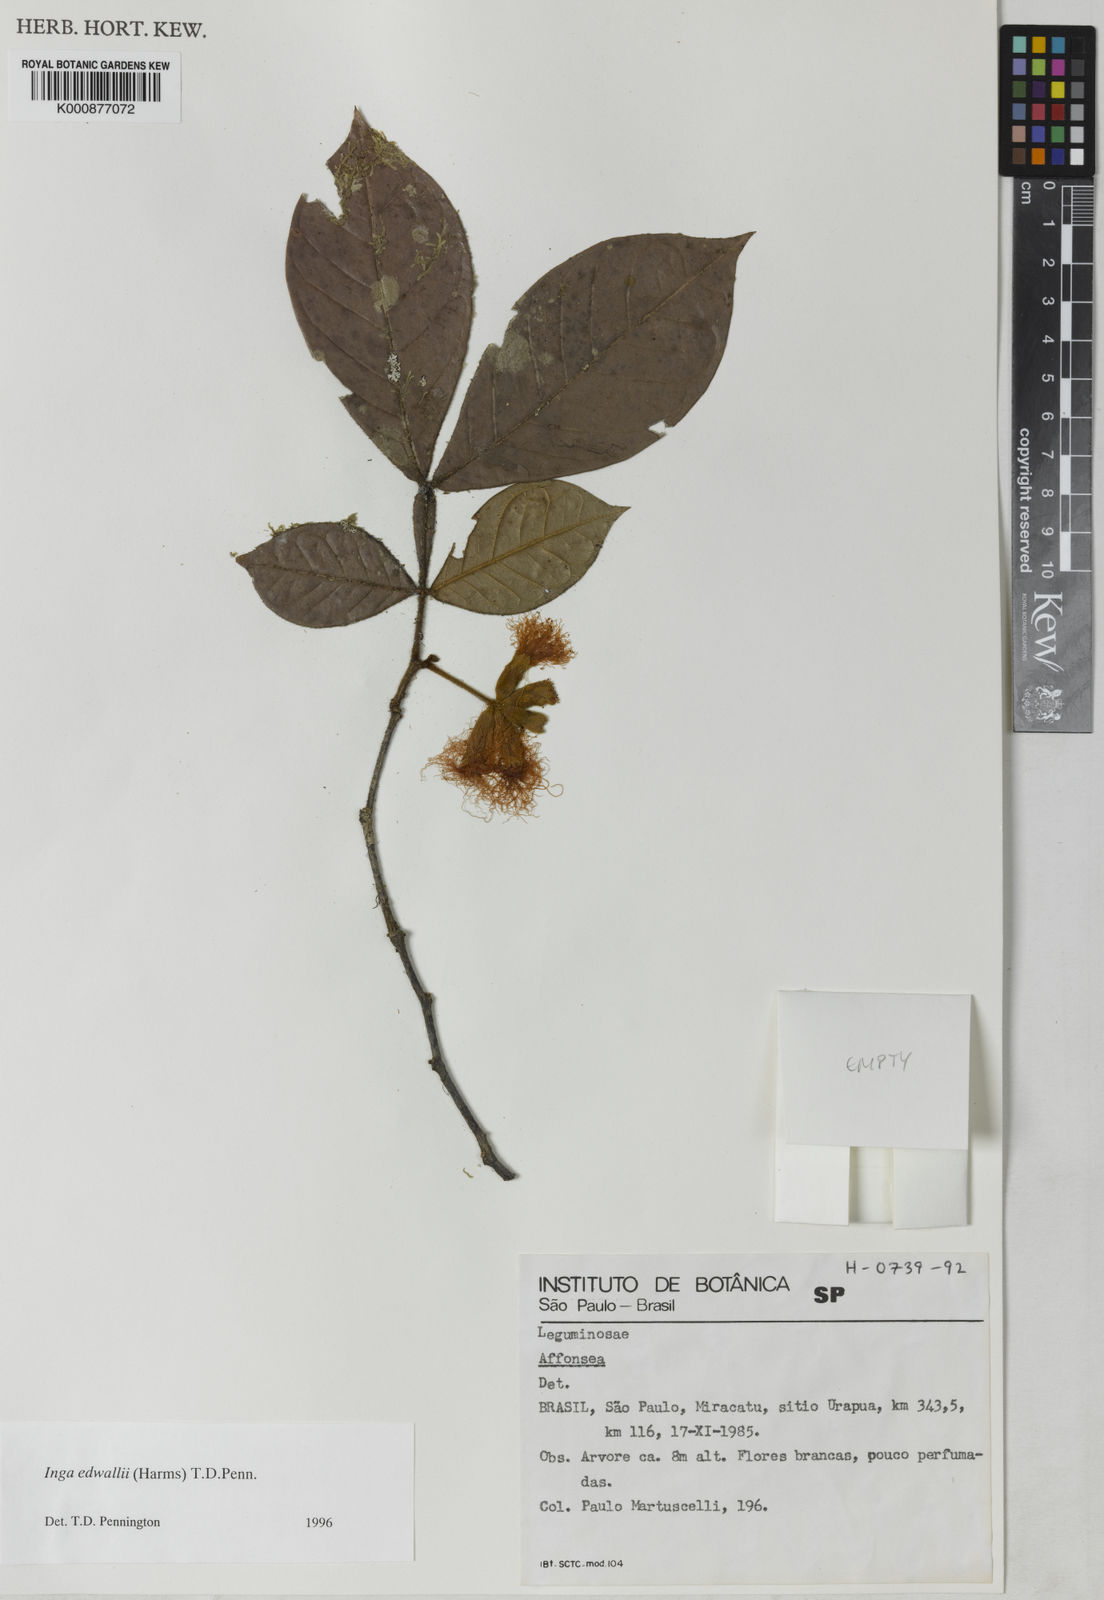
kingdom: Plantae
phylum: Tracheophyta
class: Magnoliopsida
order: Fabales
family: Fabaceae
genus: Inga
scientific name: Inga edwallii
